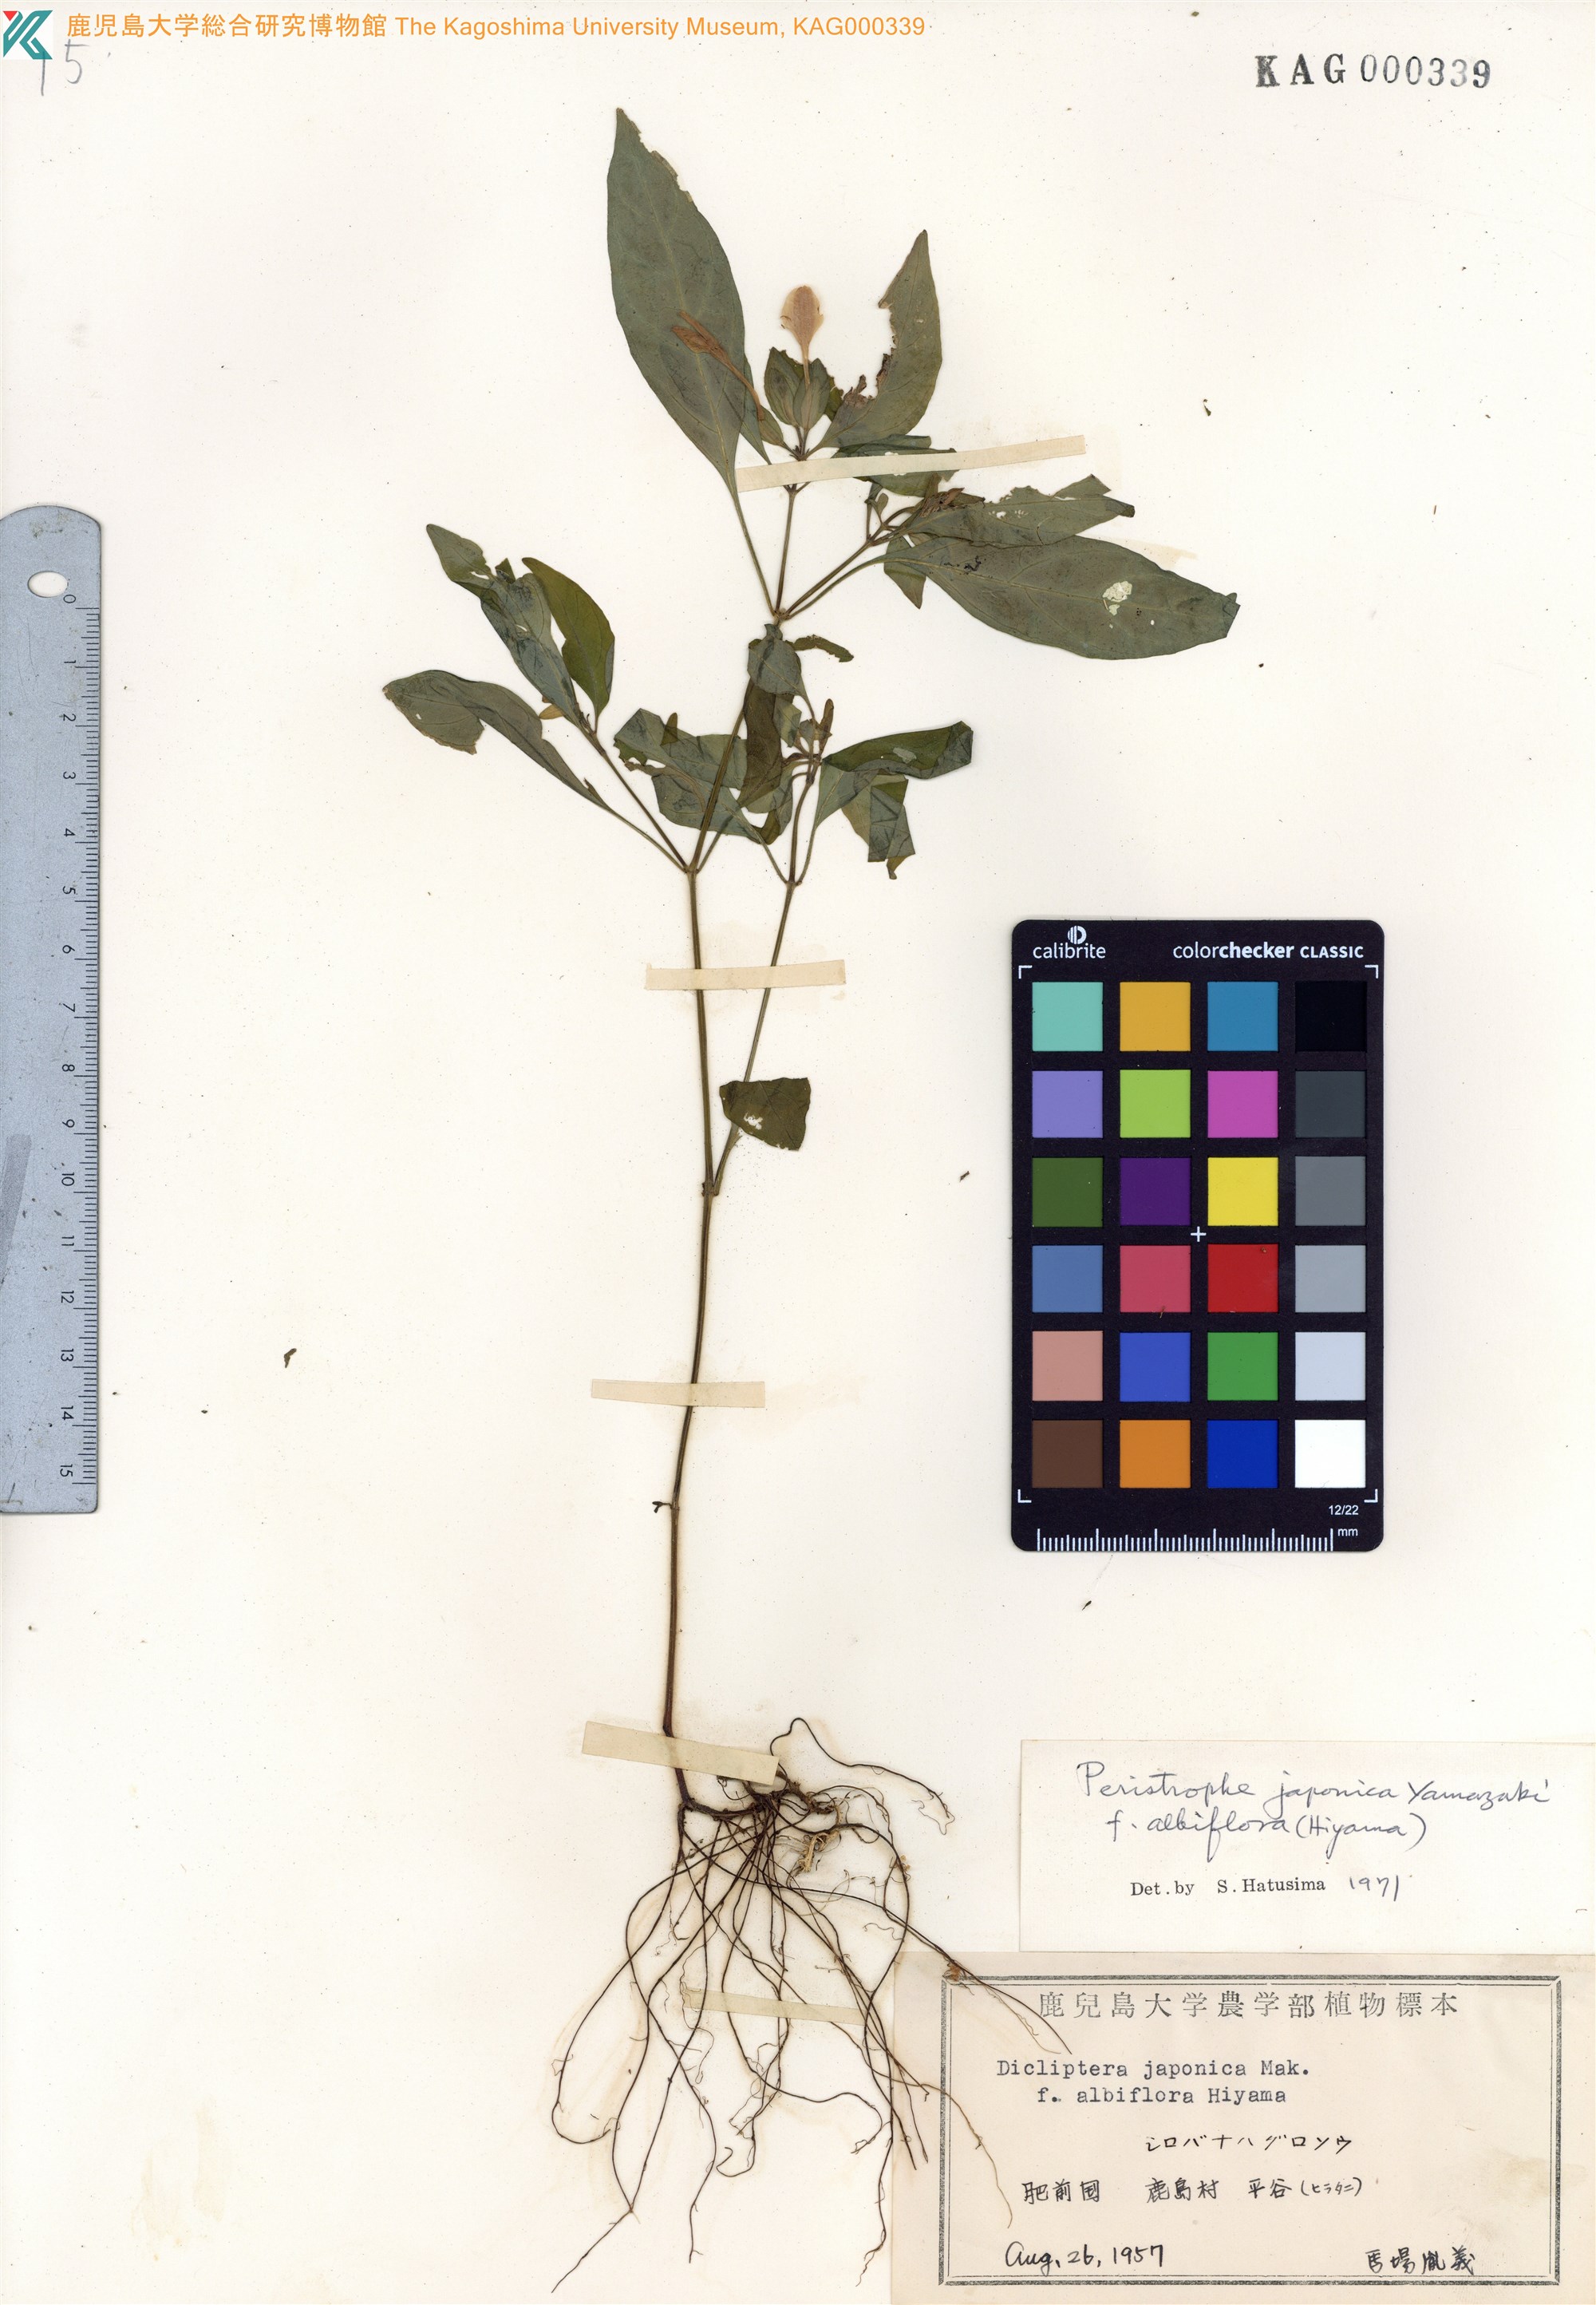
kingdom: Plantae
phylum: Tracheophyta
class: Magnoliopsida
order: Lamiales
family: Acanthaceae
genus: Dicliptera
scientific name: Dicliptera japonica
